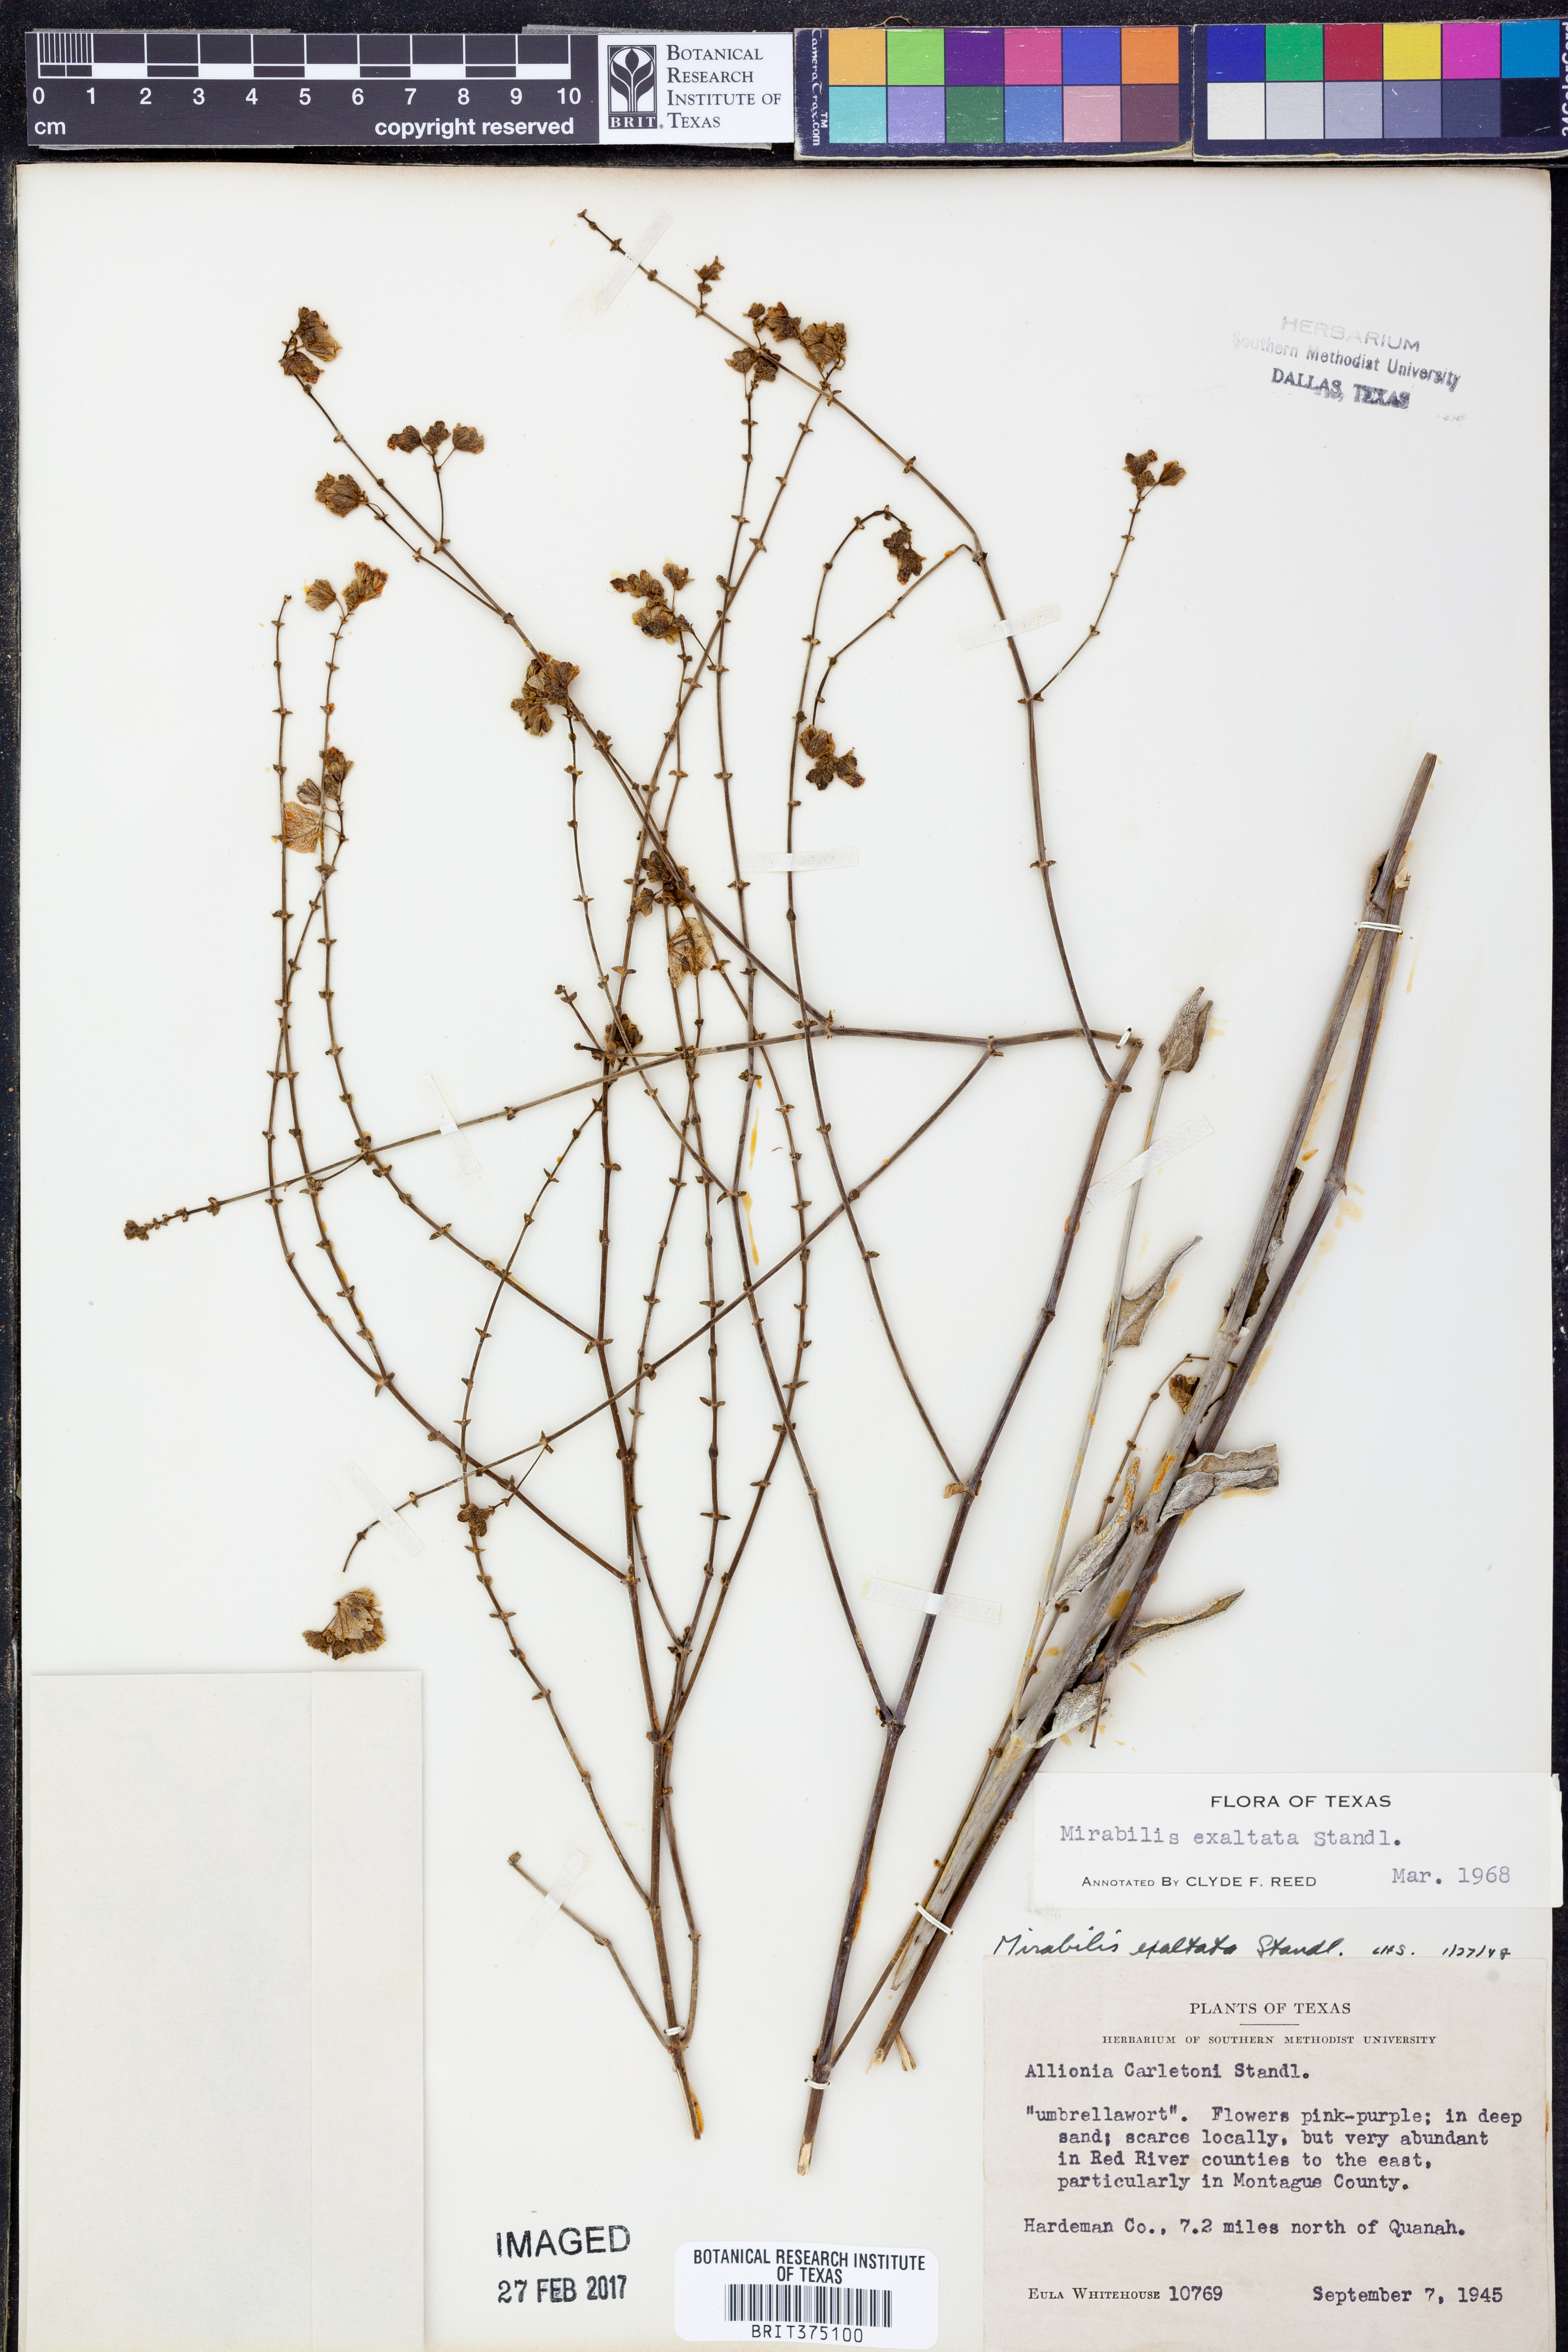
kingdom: Plantae
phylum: Tracheophyta
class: Magnoliopsida
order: Caryophyllales
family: Nyctaginaceae
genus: Mirabilis
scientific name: Mirabilis glabra
